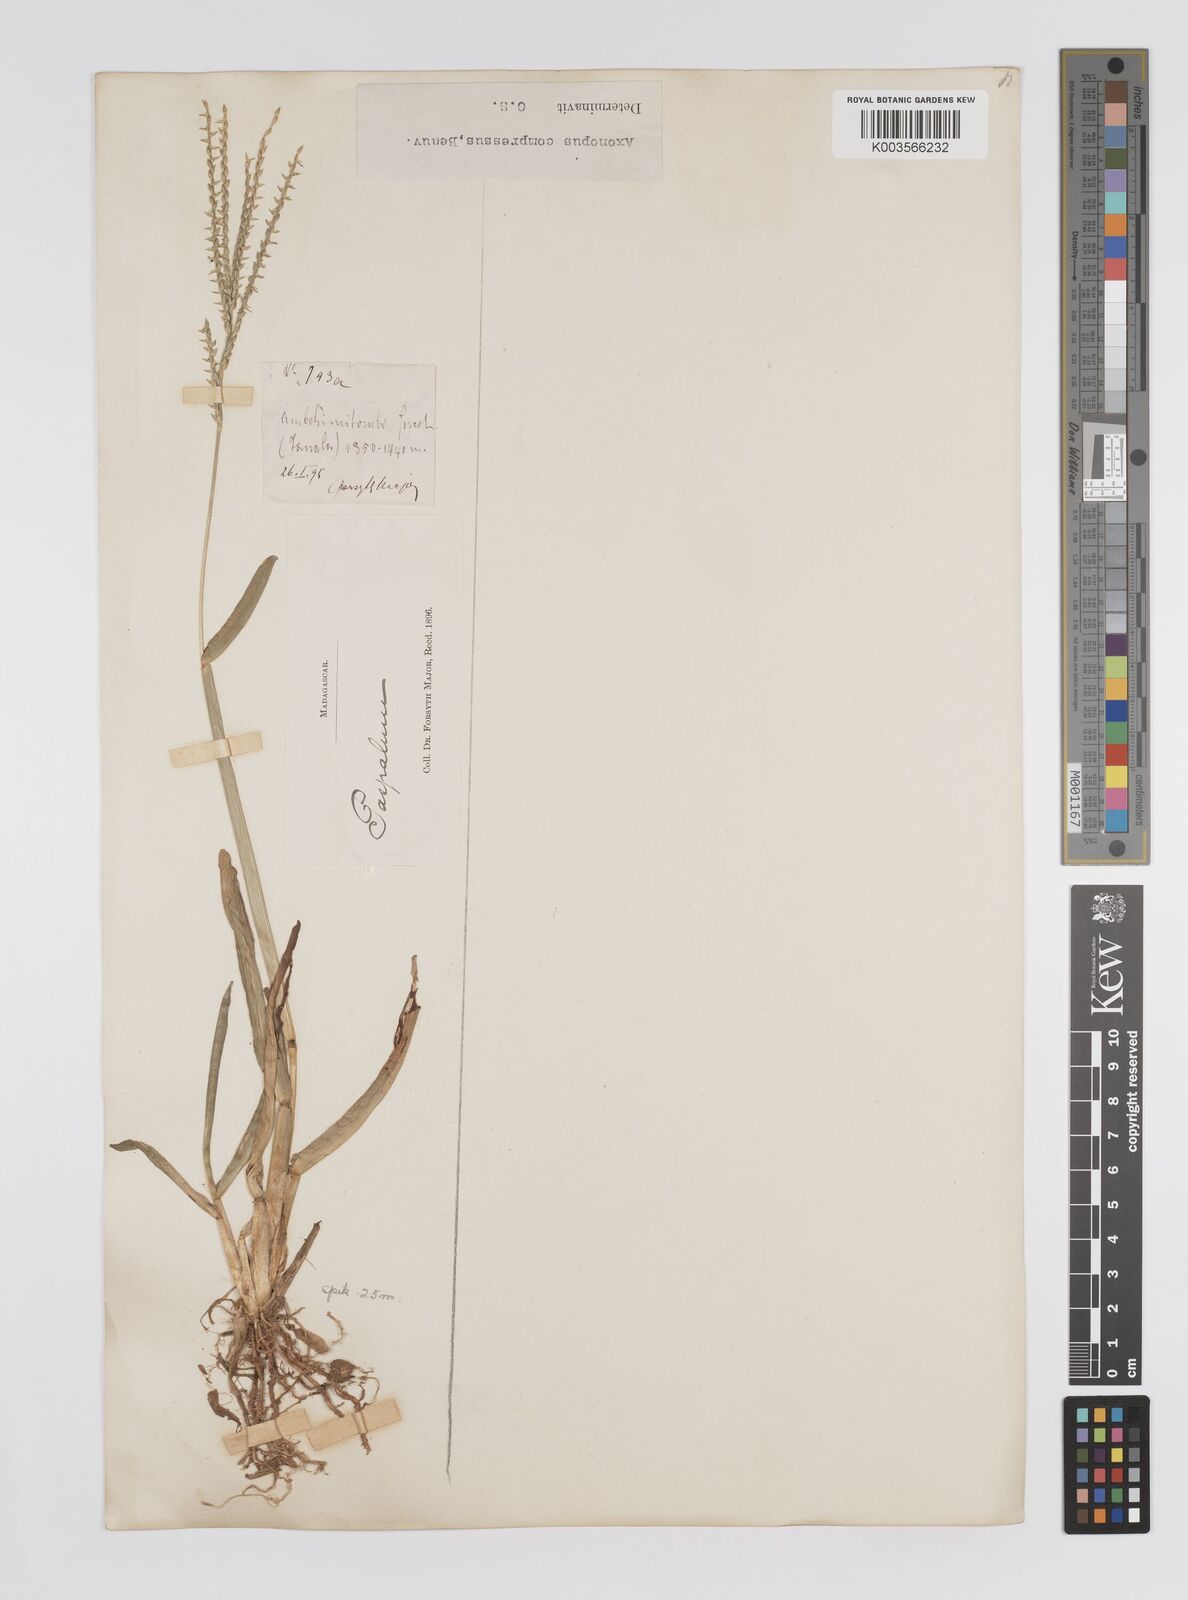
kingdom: Plantae
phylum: Tracheophyta
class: Liliopsida
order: Poales
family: Poaceae
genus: Axonopus
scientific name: Axonopus compressus
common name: American carpet grass
